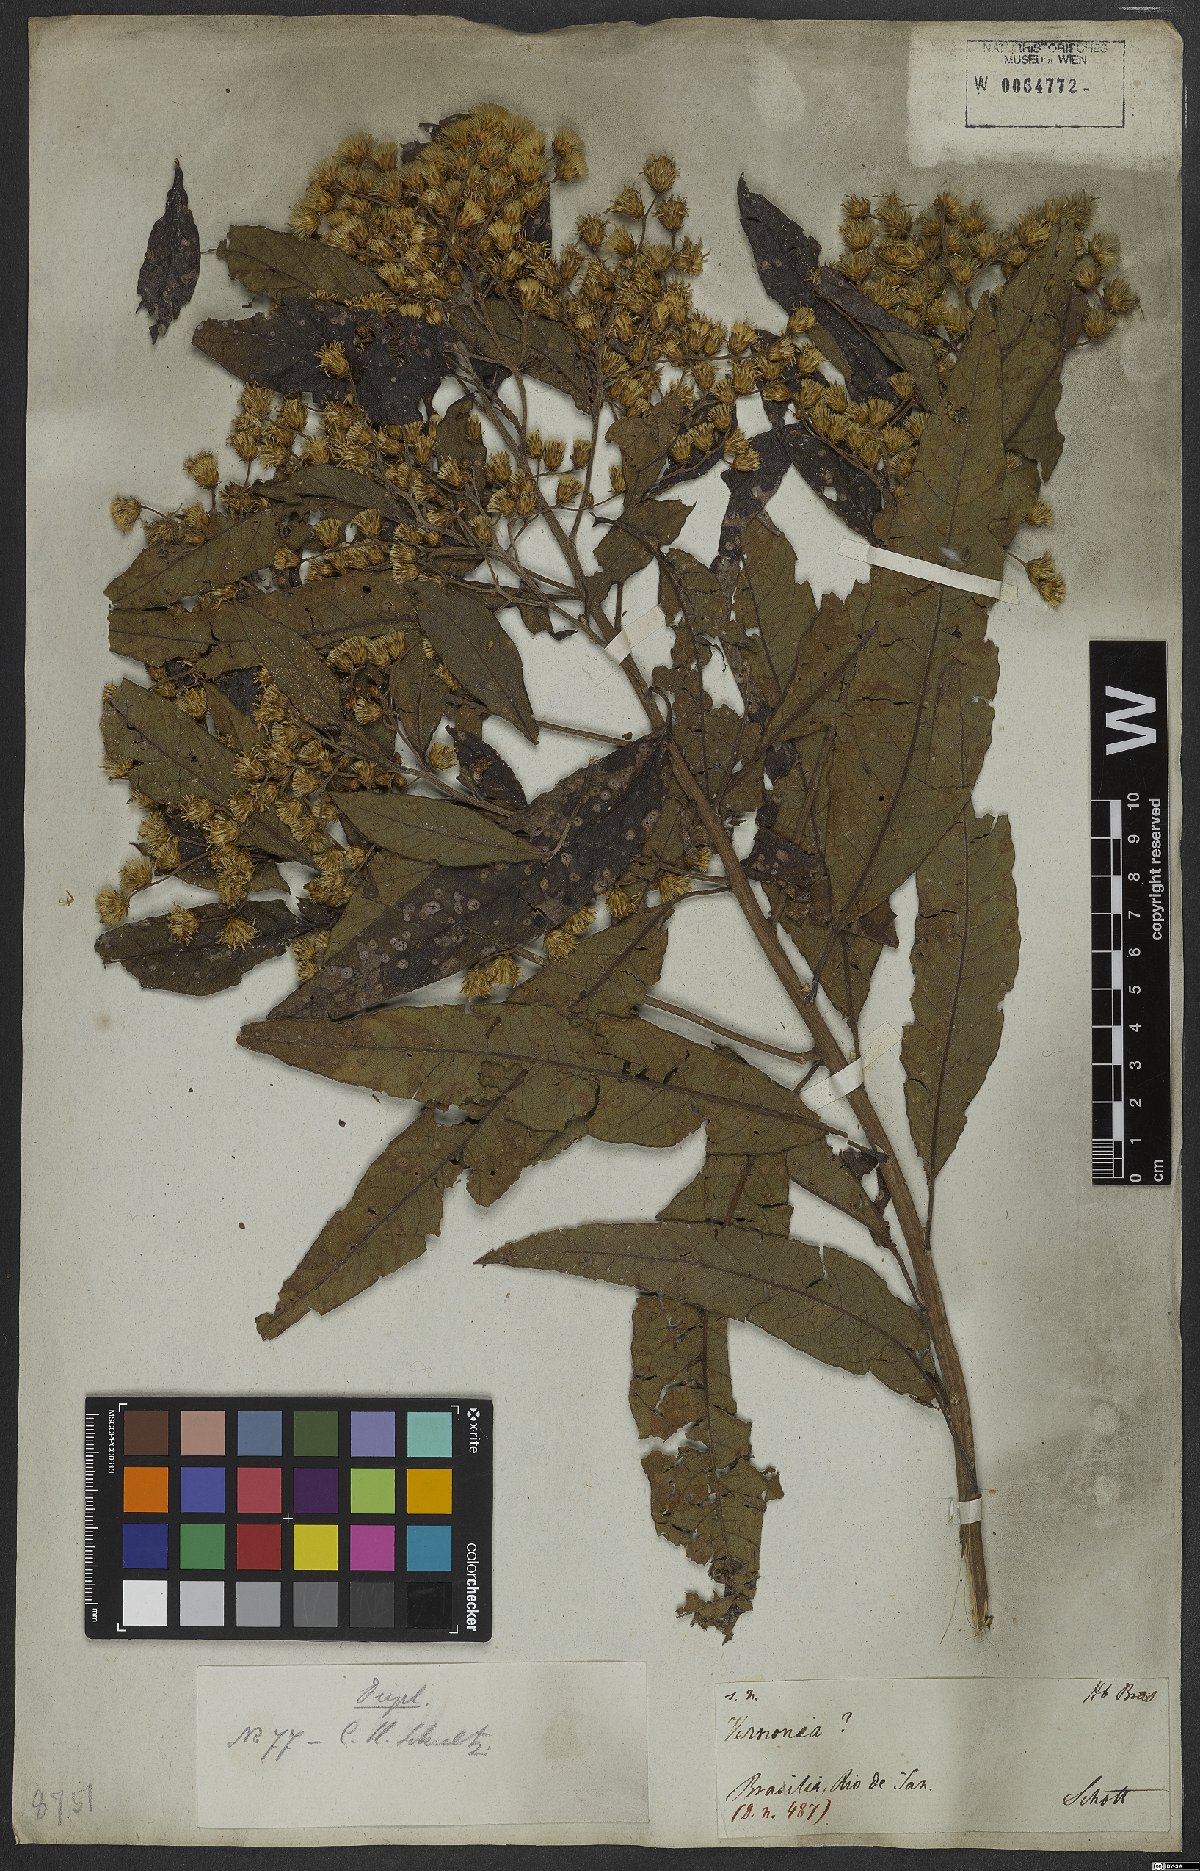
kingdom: Plantae
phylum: Tracheophyta
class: Magnoliopsida
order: Asterales
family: Asteraceae
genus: Vernonia
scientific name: Vernonia
